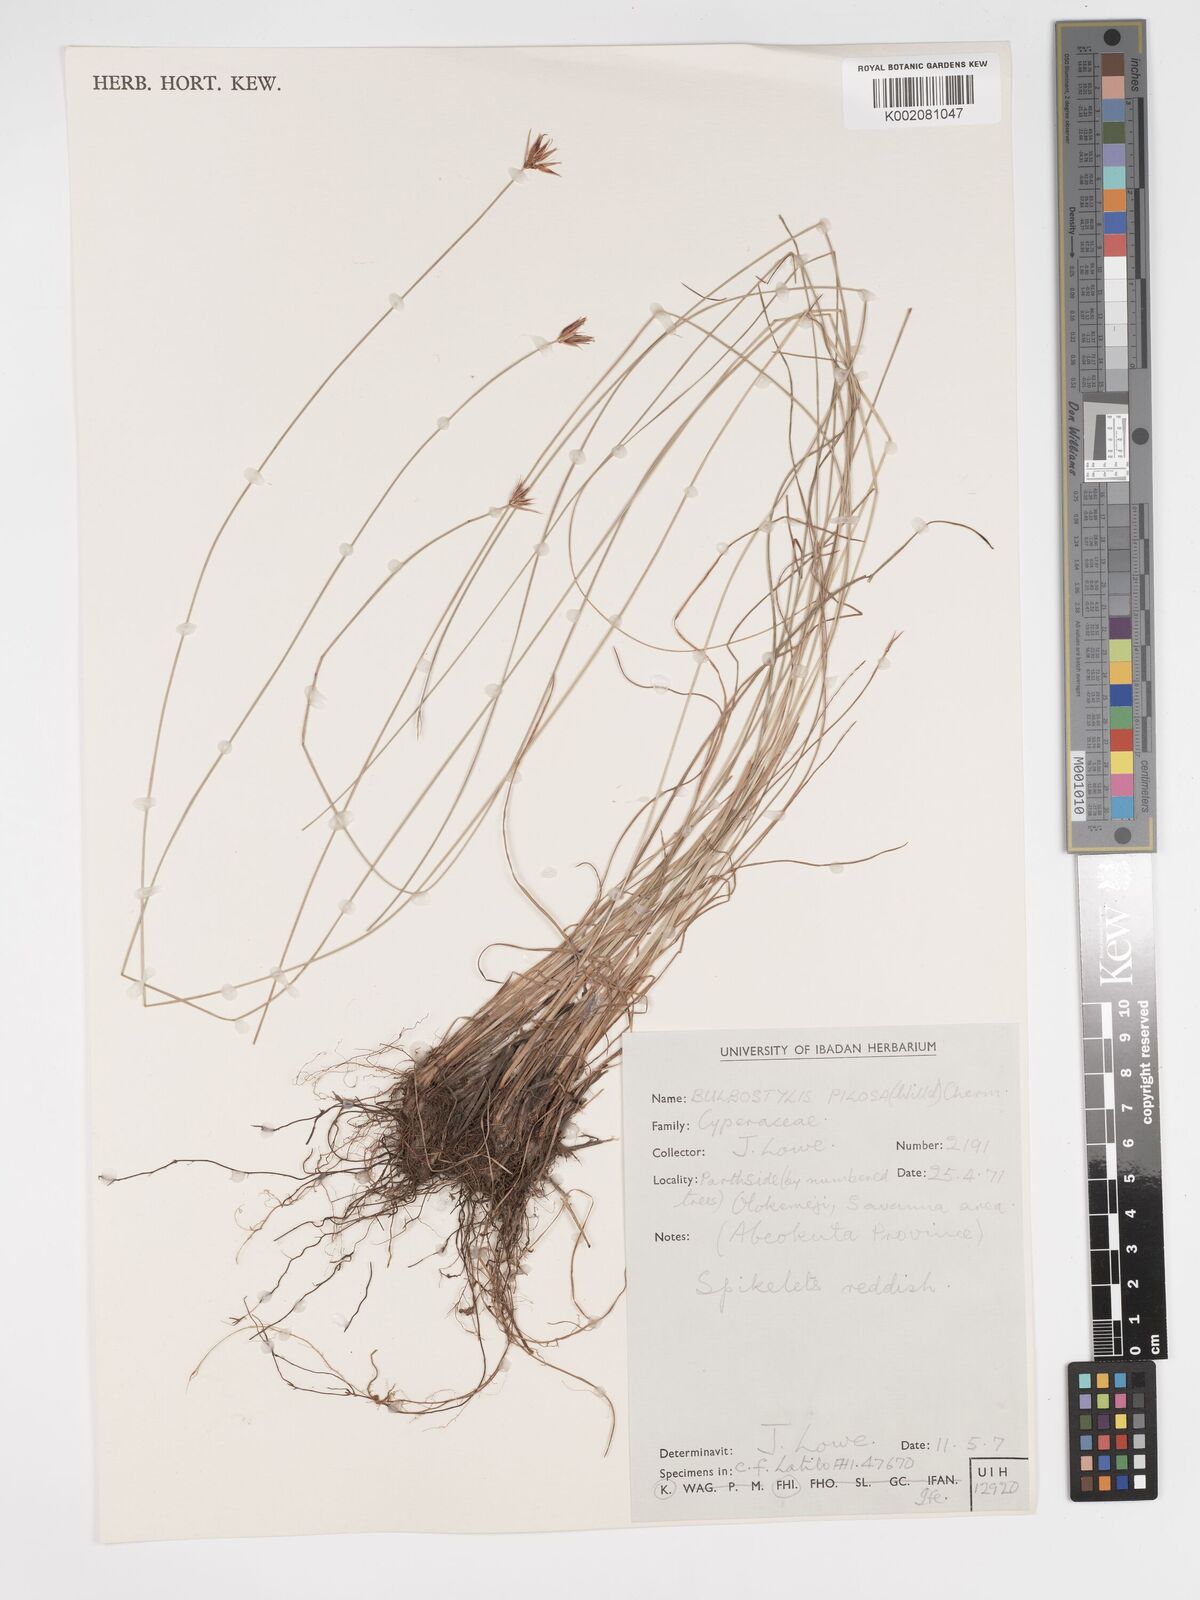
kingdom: Plantae
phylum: Tracheophyta
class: Liliopsida
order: Poales
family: Cyperaceae
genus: Bulbostylis
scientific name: Bulbostylis pilosa
